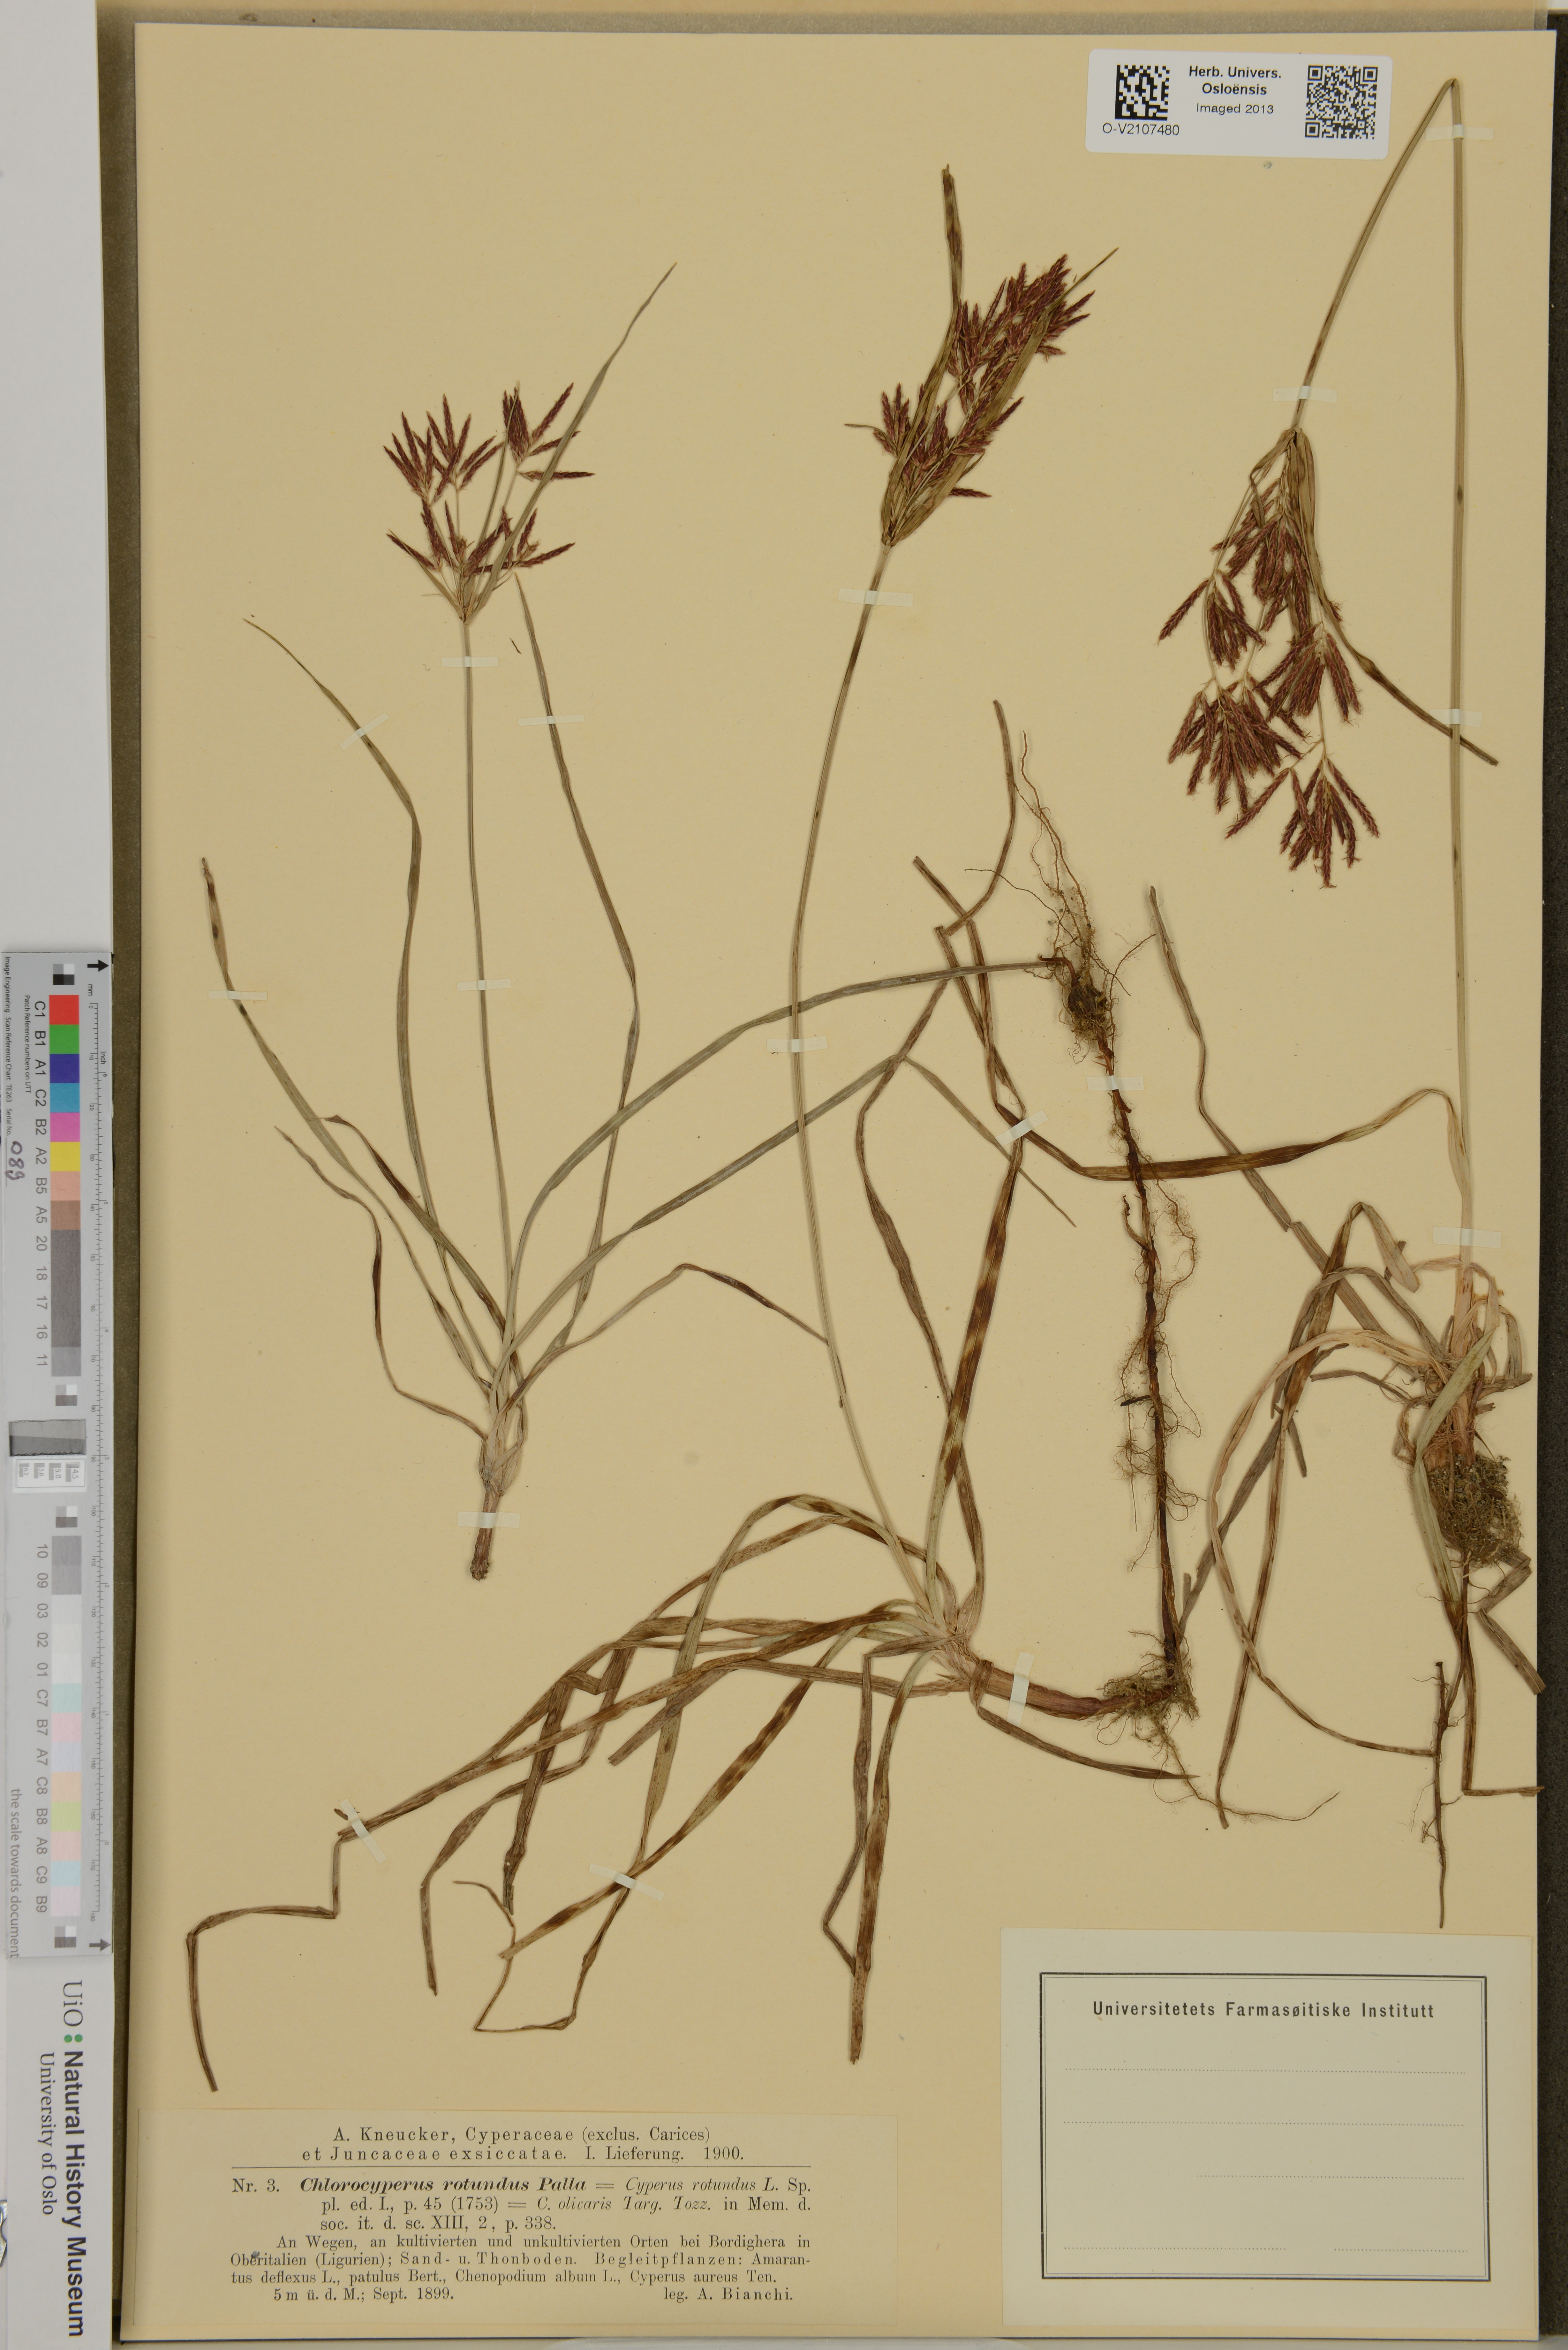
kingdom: Plantae
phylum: Tracheophyta
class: Liliopsida
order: Poales
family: Cyperaceae
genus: Cyperus
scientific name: Cyperus rotundus
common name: Nutgrass
